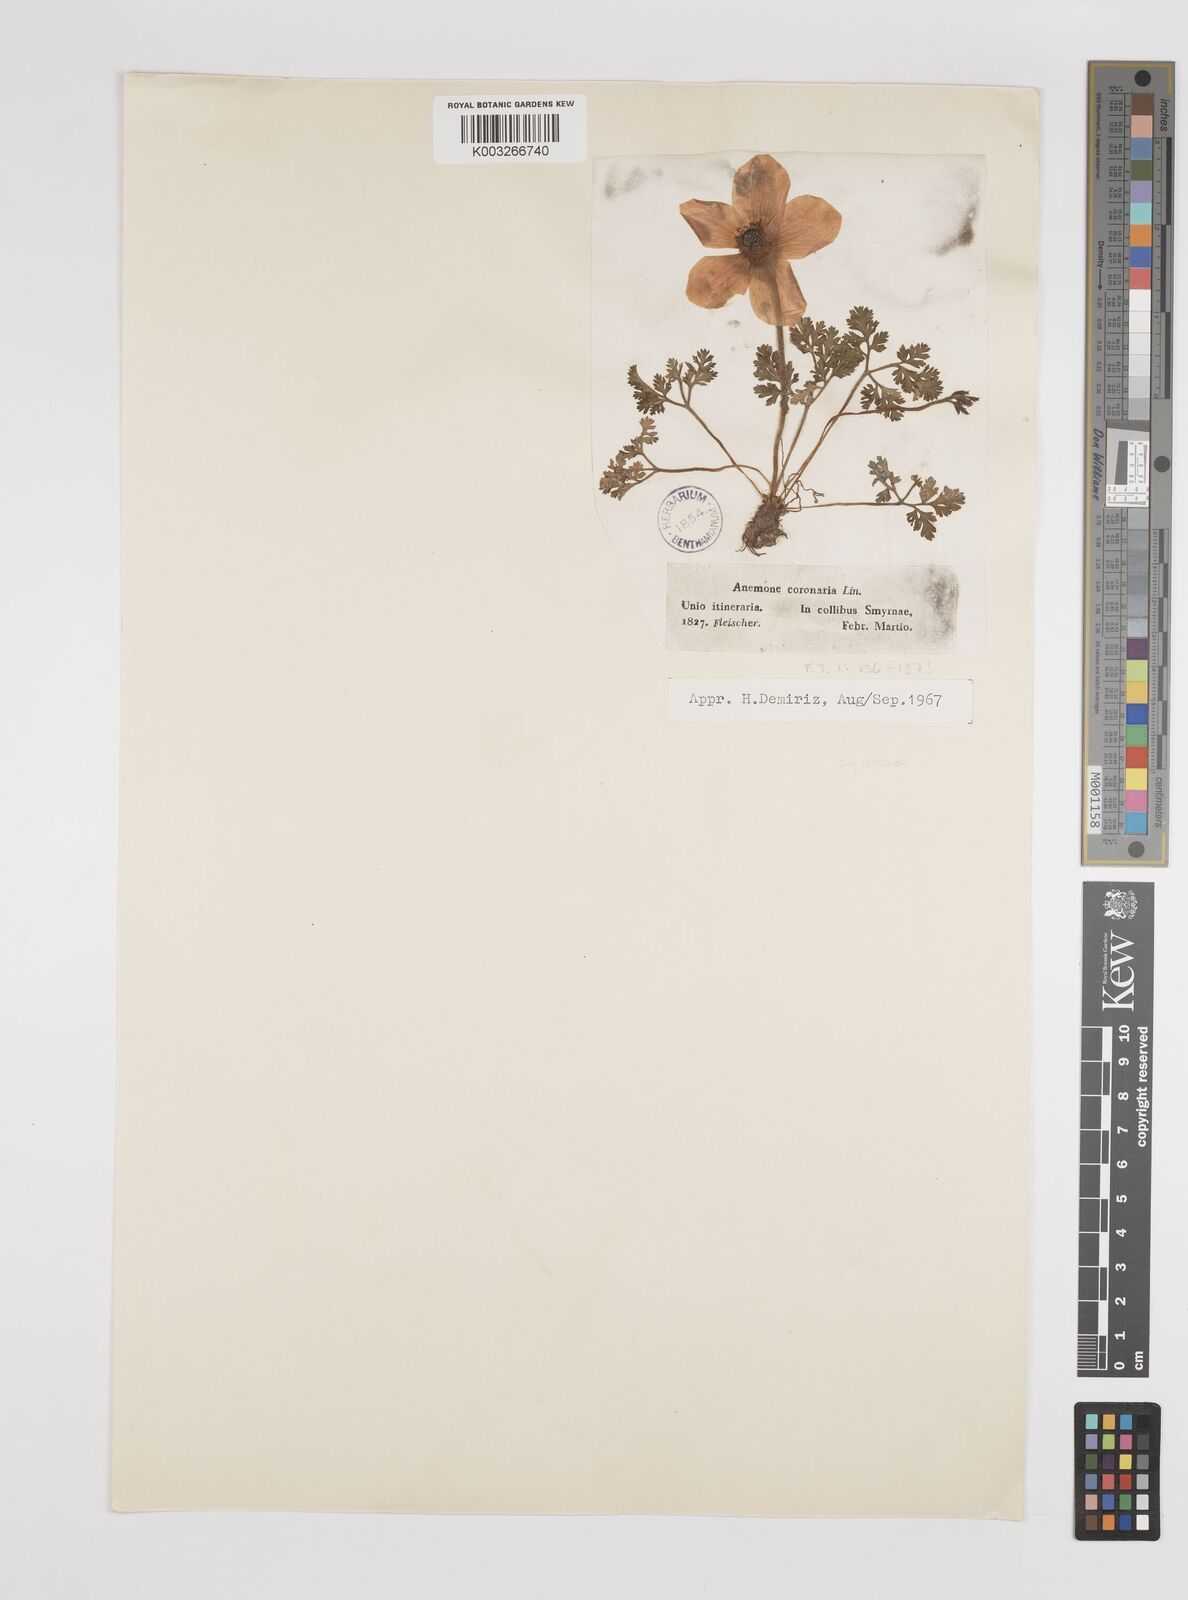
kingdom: Plantae
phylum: Tracheophyta
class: Magnoliopsida
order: Ranunculales
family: Ranunculaceae
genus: Anemone
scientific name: Anemone coronaria
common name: Poppy anemone
